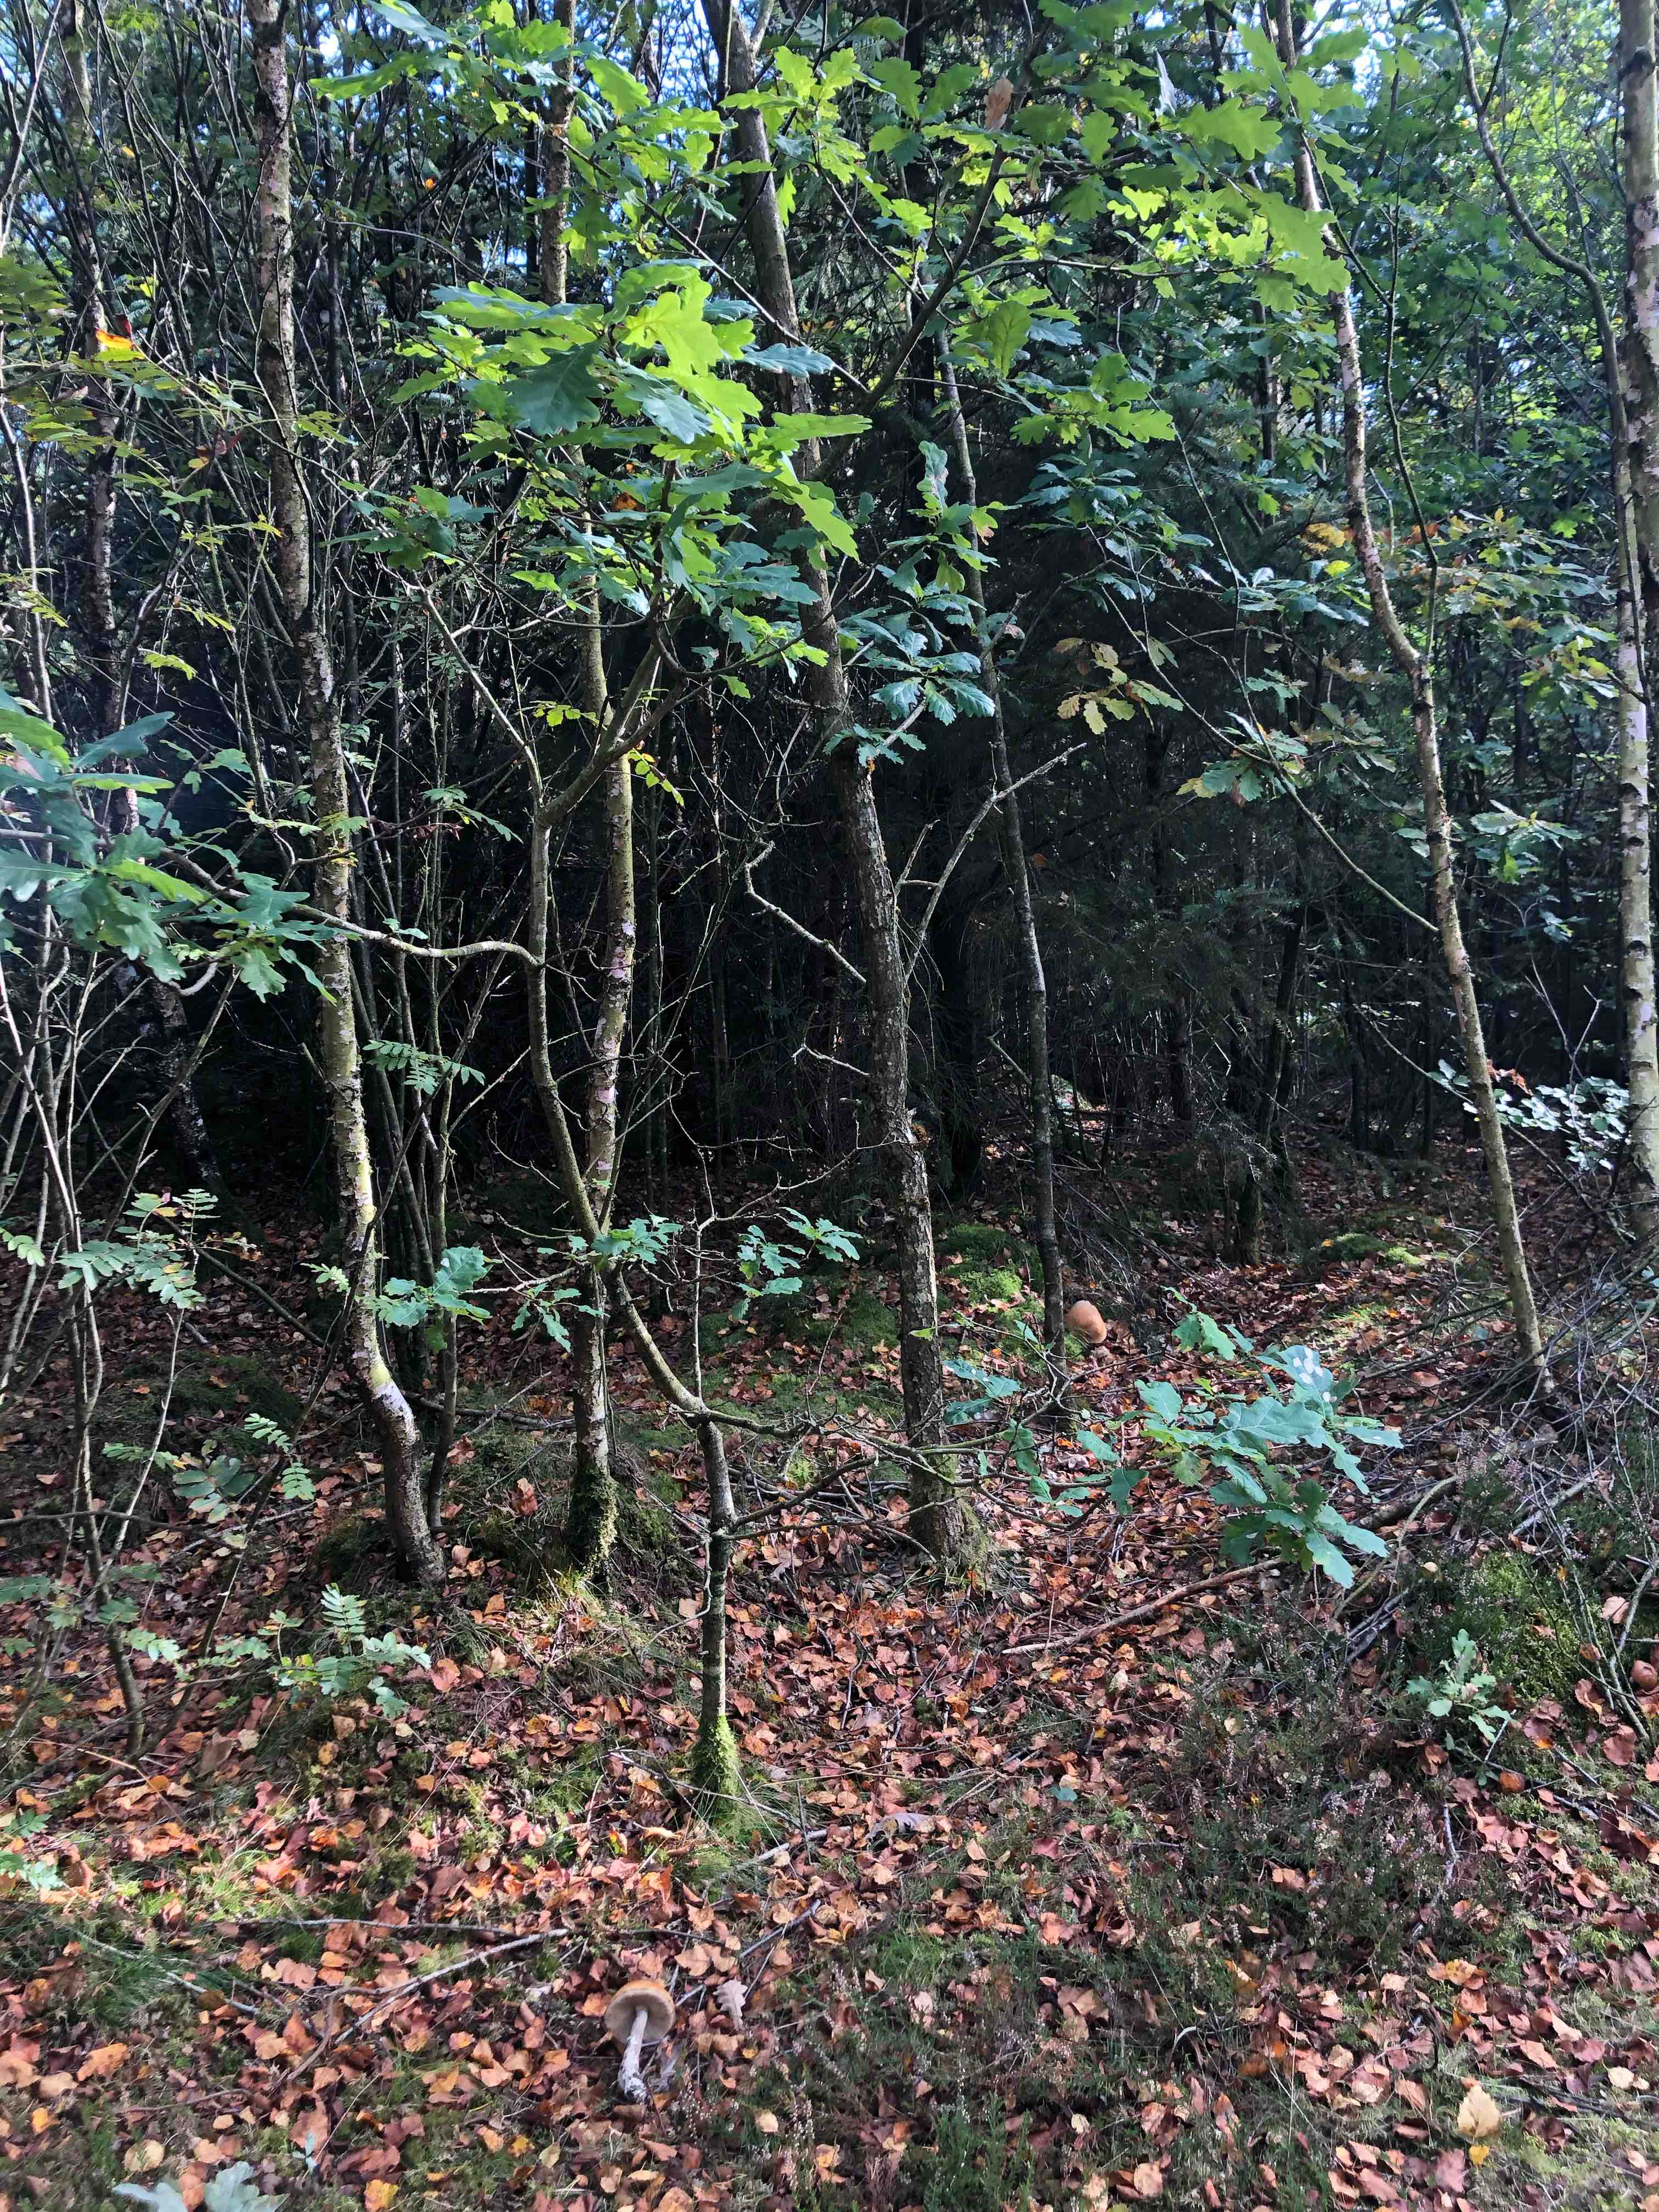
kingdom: Fungi
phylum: Basidiomycota
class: Agaricomycetes
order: Boletales
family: Boletaceae
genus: Leccinum
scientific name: Leccinum versipelle
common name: orange skælrørhat
